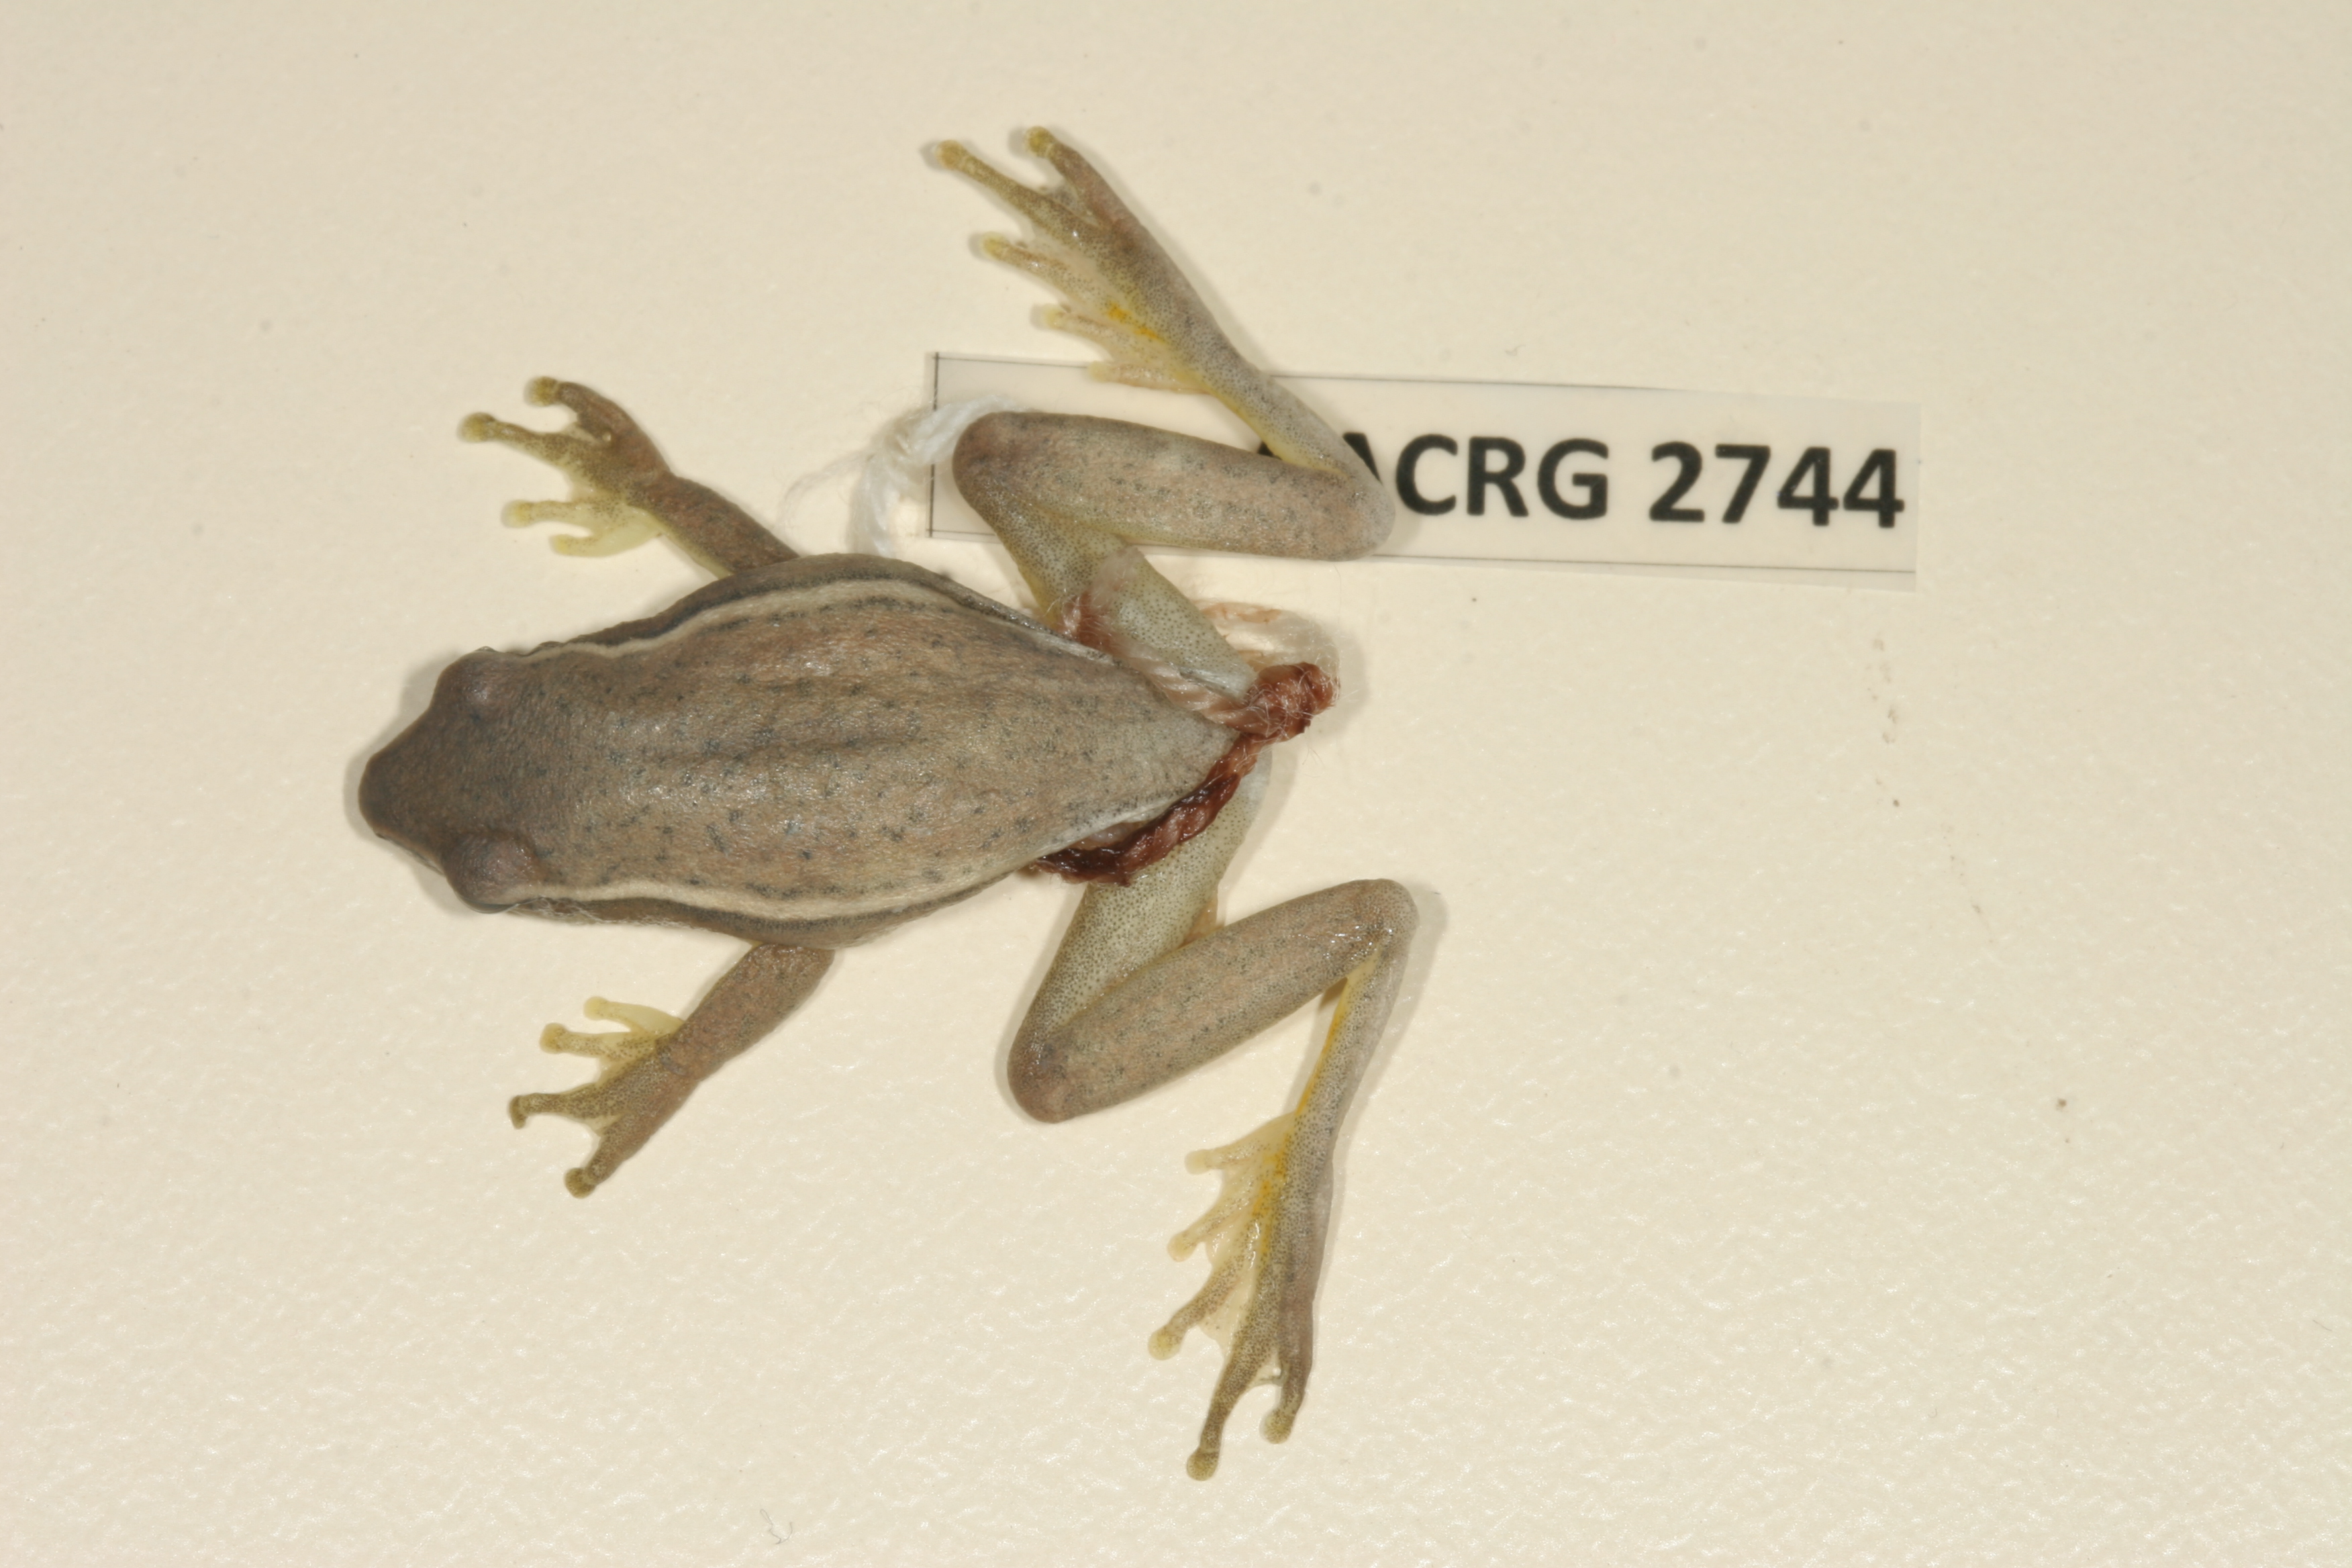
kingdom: Animalia
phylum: Chordata
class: Amphibia
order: Anura
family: Hyperoliidae
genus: Hyperolius
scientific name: Hyperolius horstockii
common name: Arum lily frog
